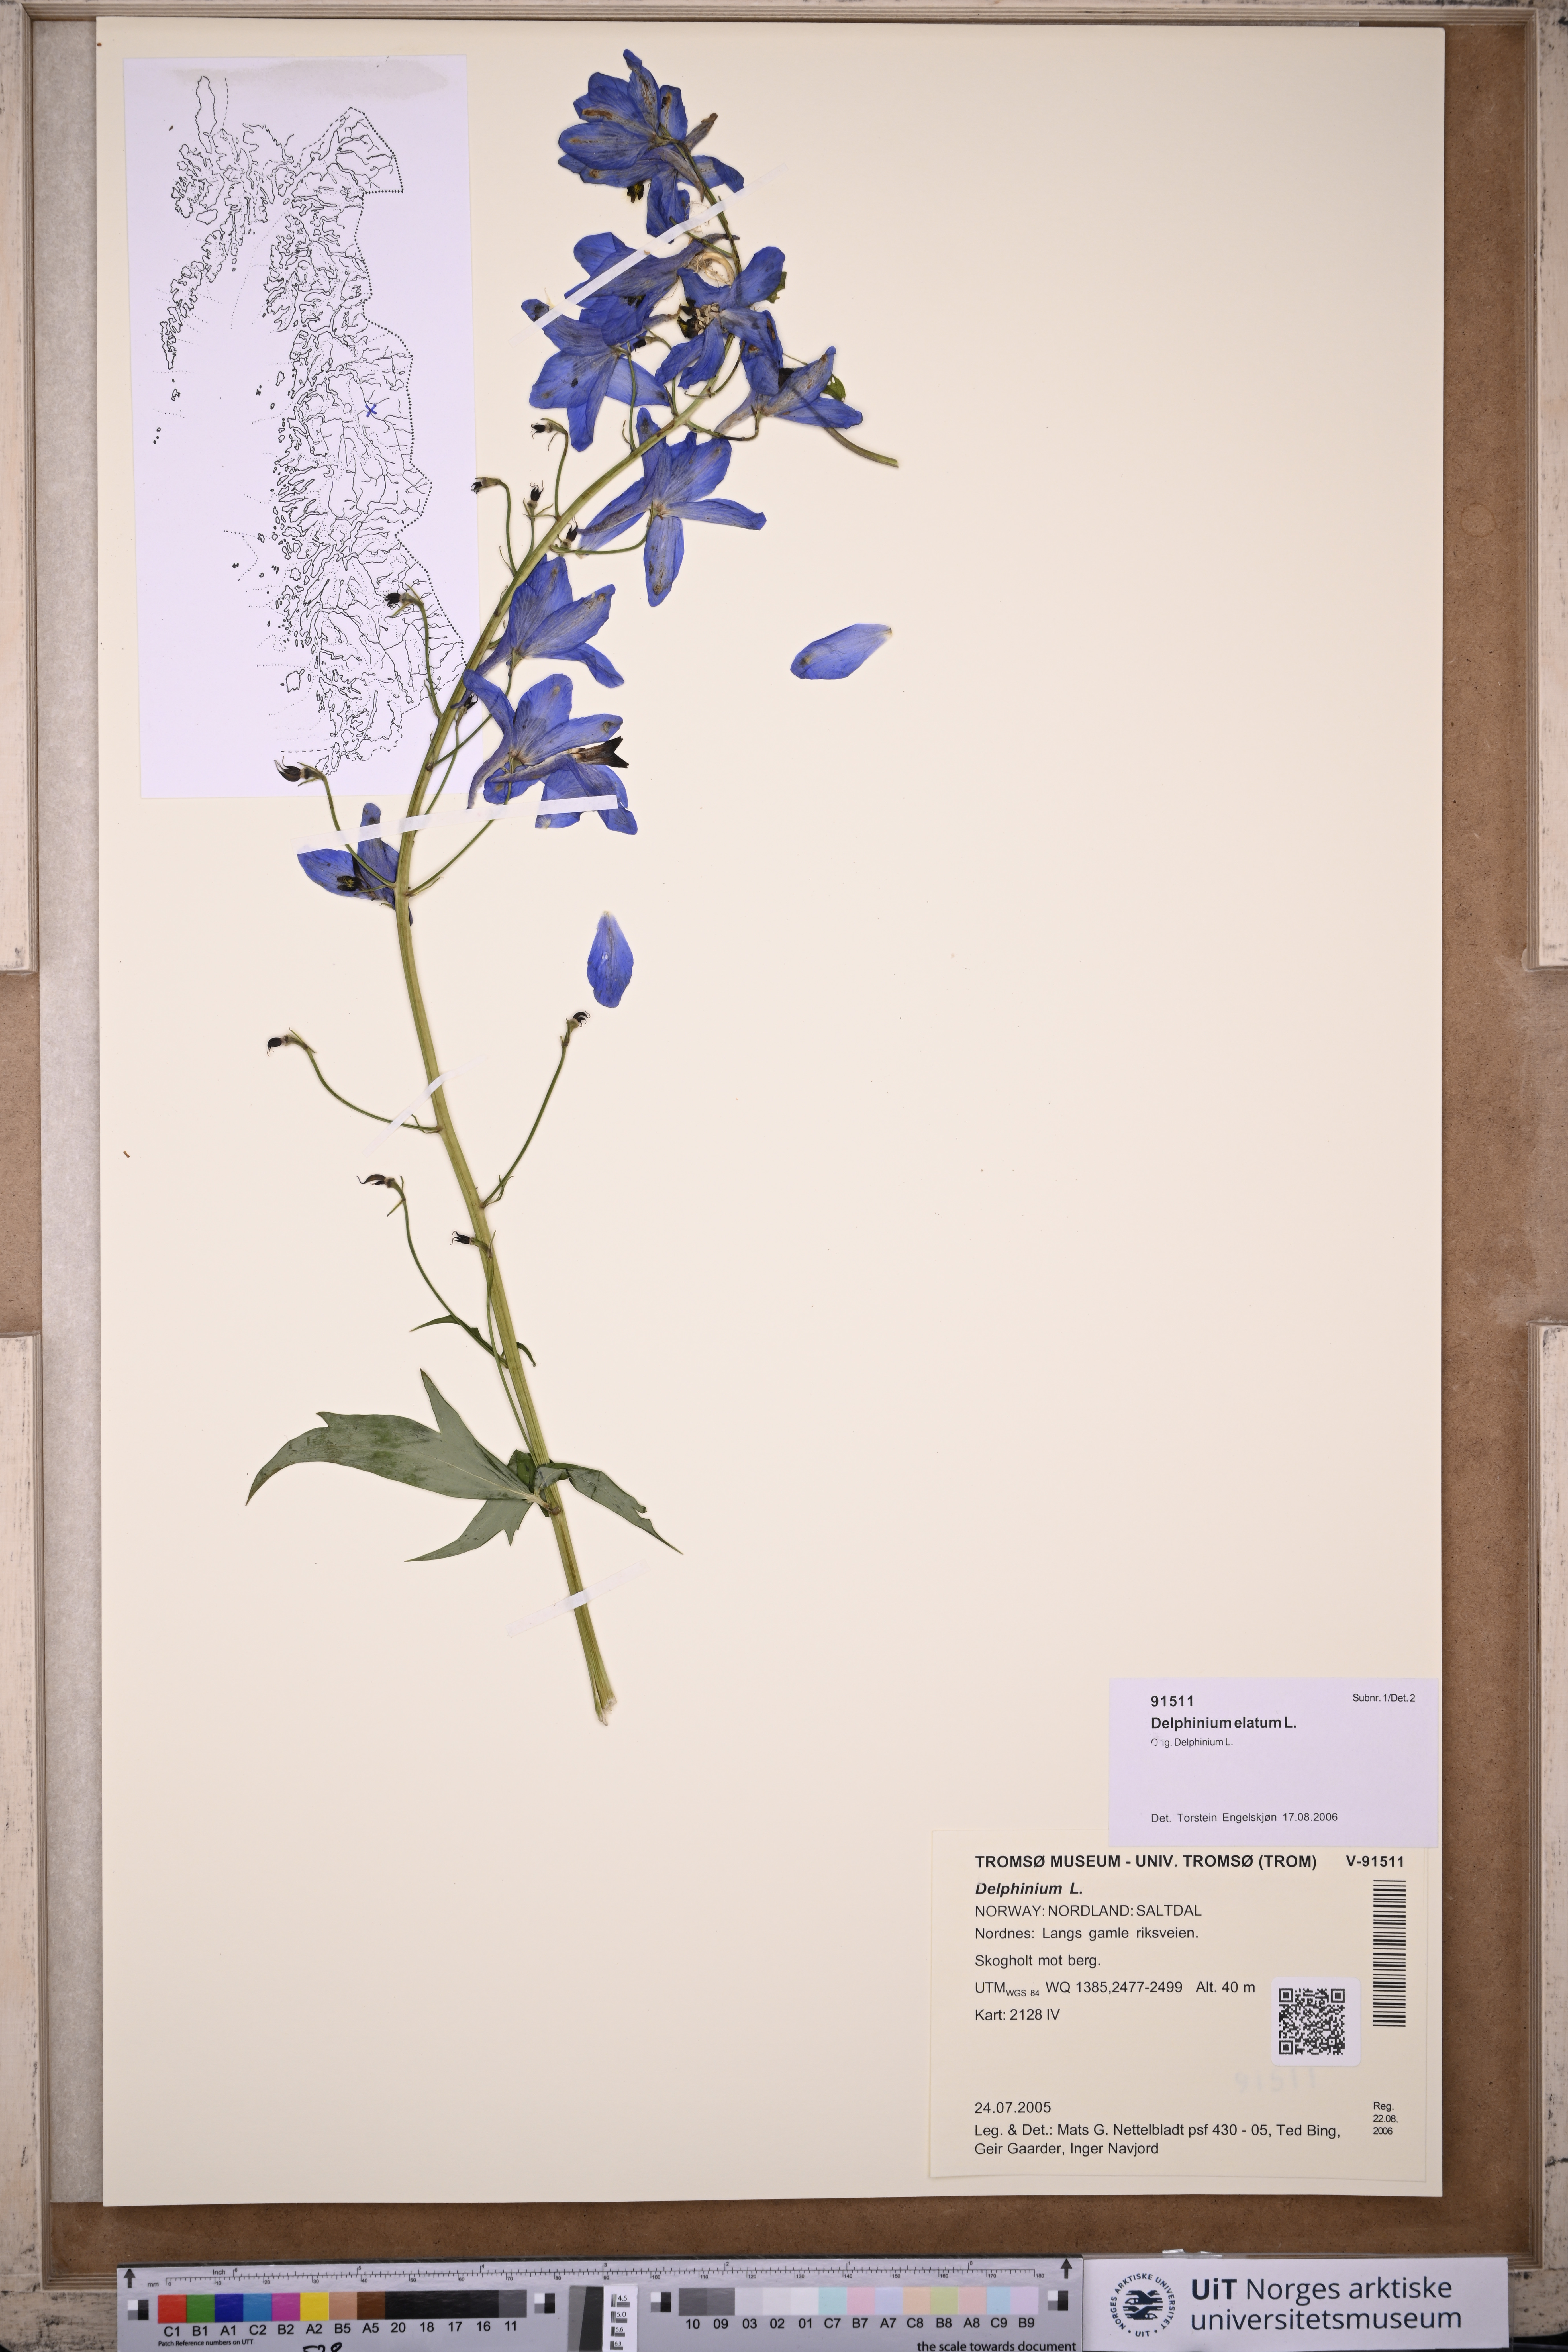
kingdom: Plantae
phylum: Tracheophyta
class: Magnoliopsida
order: Ranunculales
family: Ranunculaceae
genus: Delphinium
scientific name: Delphinium elatum
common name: Candle larkspur
